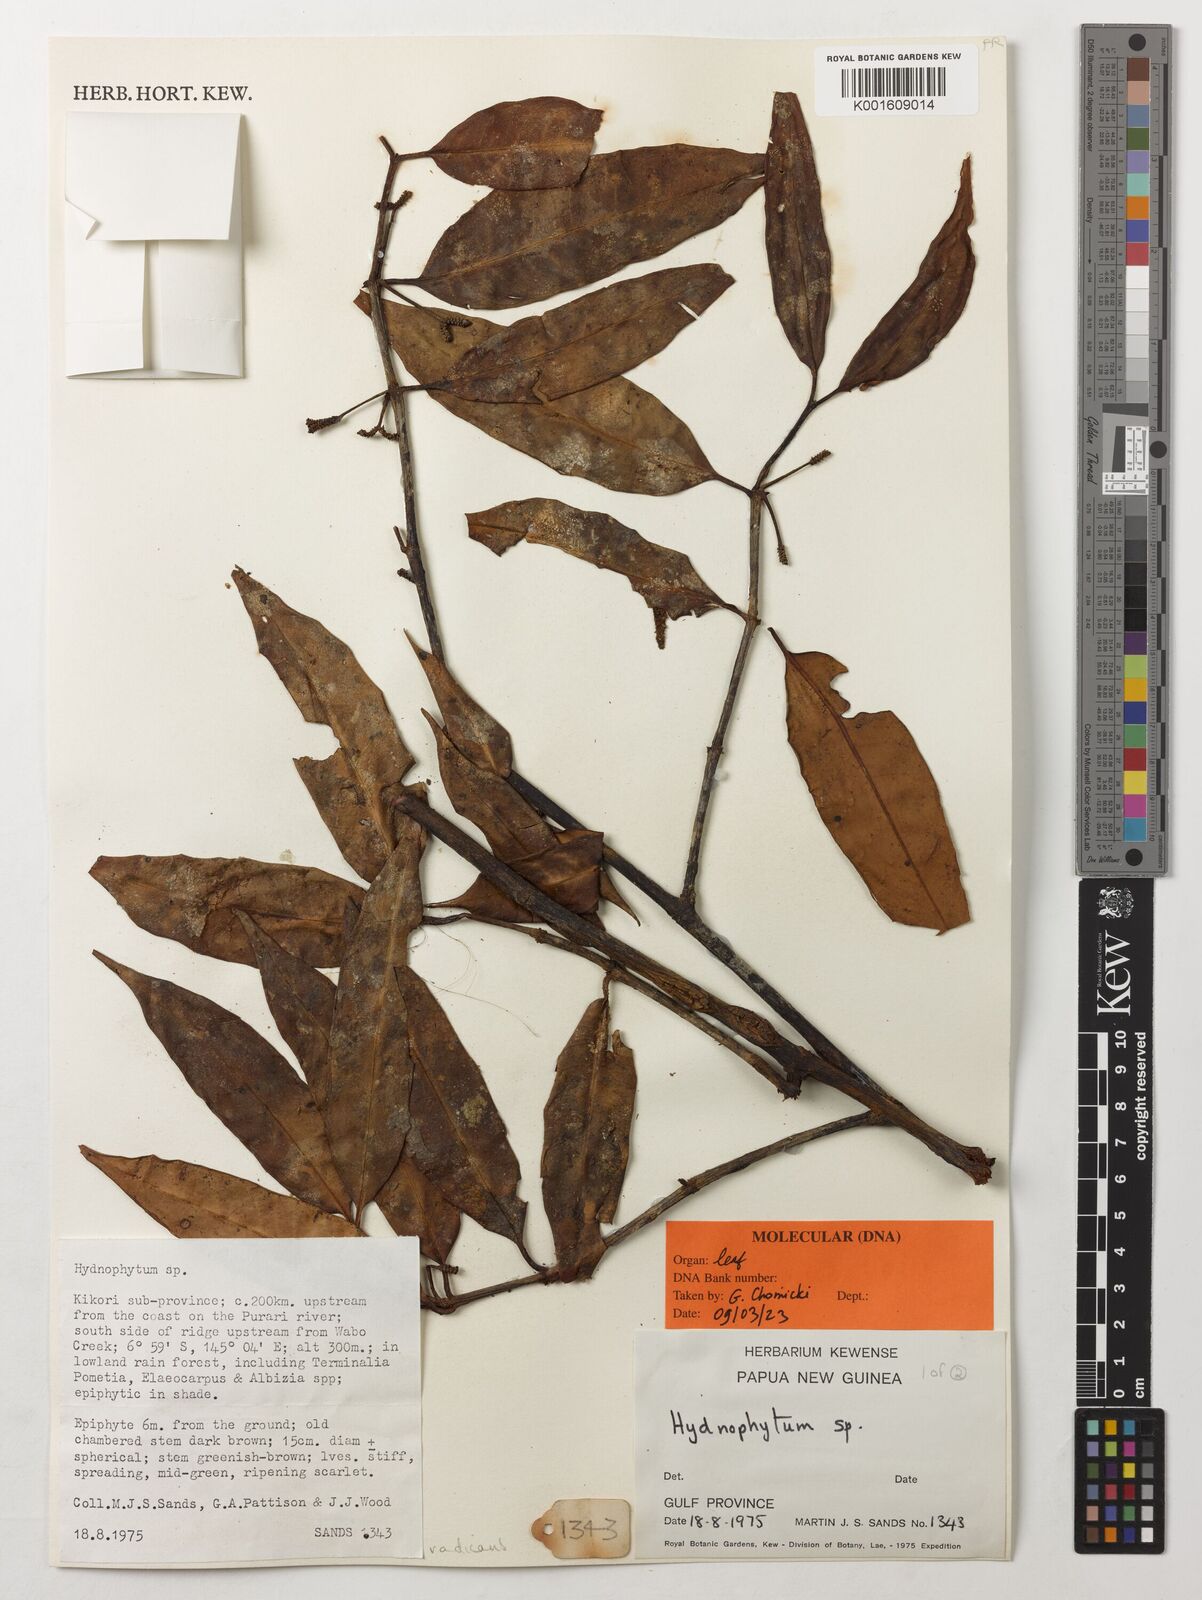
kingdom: Plantae
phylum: Tracheophyta
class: Magnoliopsida
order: Gentianales
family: Rubiaceae
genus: Hydnophytum
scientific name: Hydnophytum
